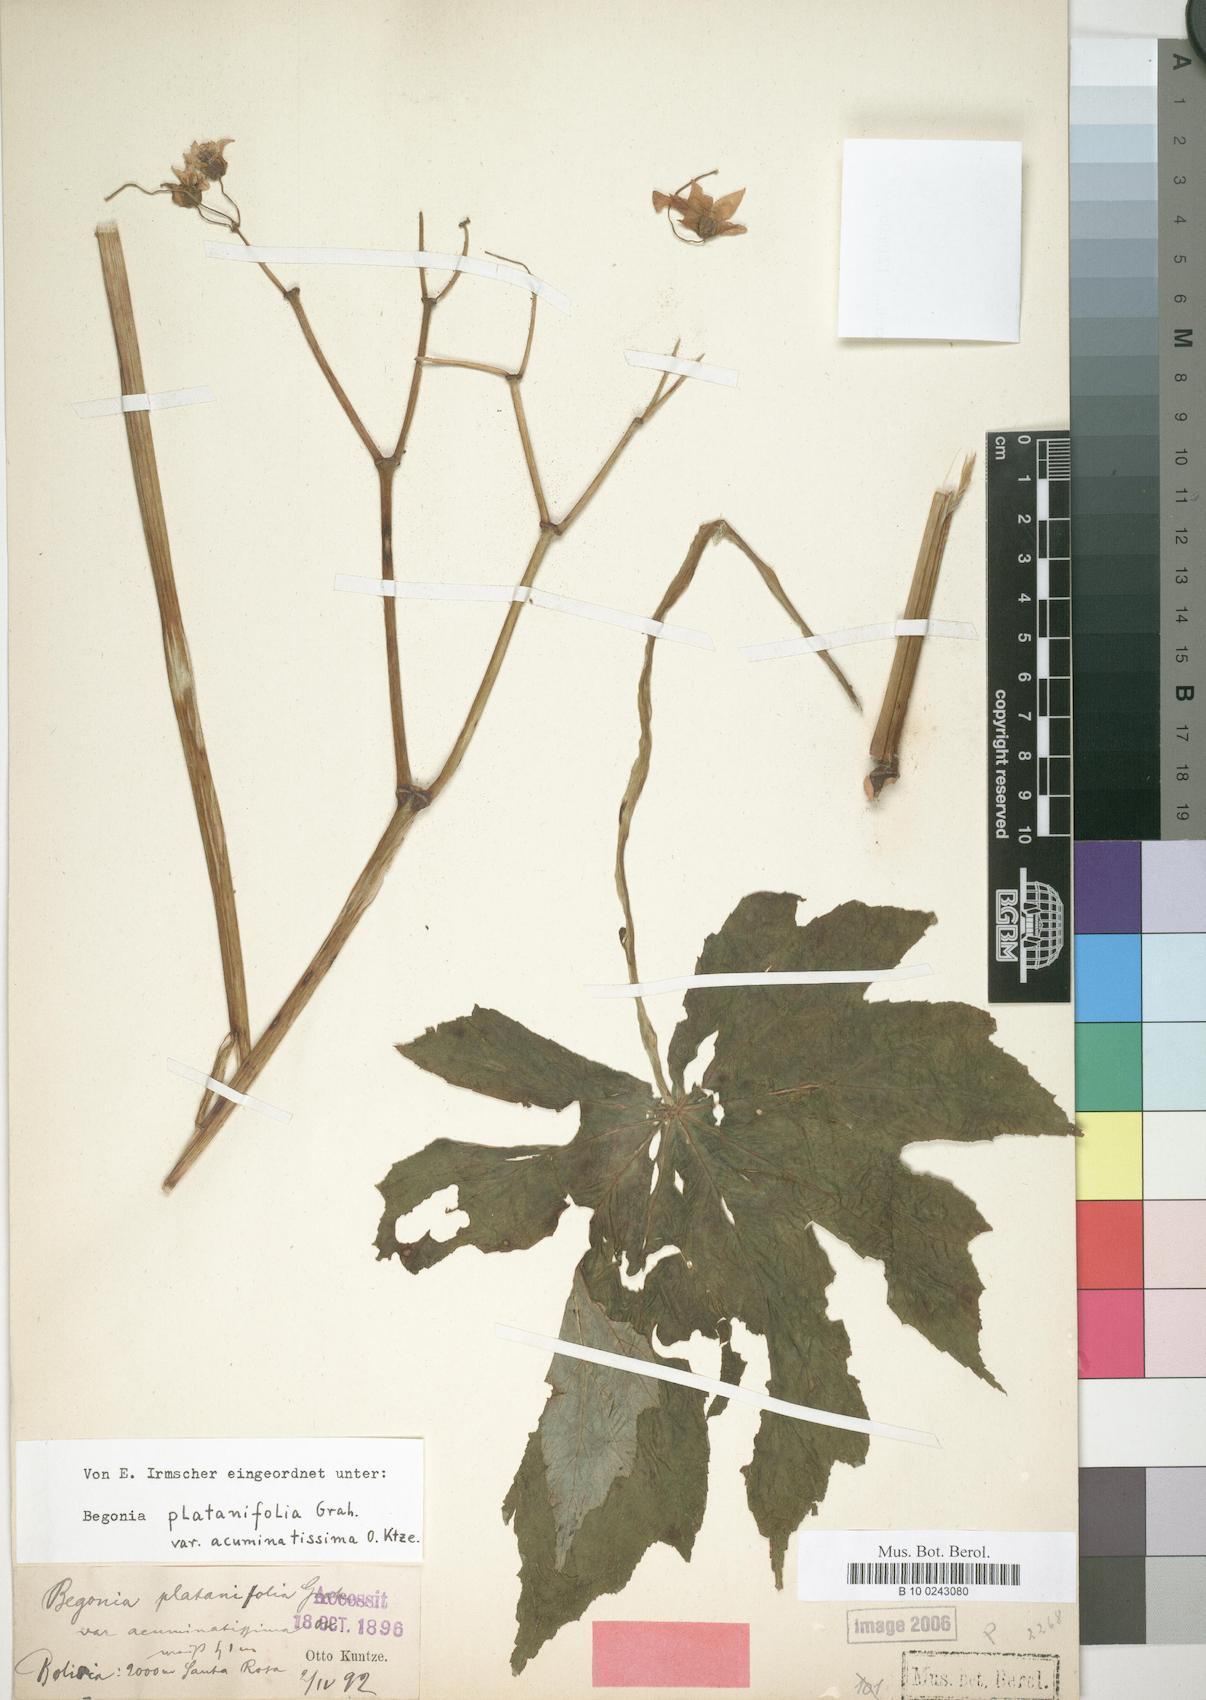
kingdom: Plantae
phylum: Tracheophyta
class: Magnoliopsida
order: Cucurbitales
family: Begoniaceae
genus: Begonia
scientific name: Begonia leathermaniae
